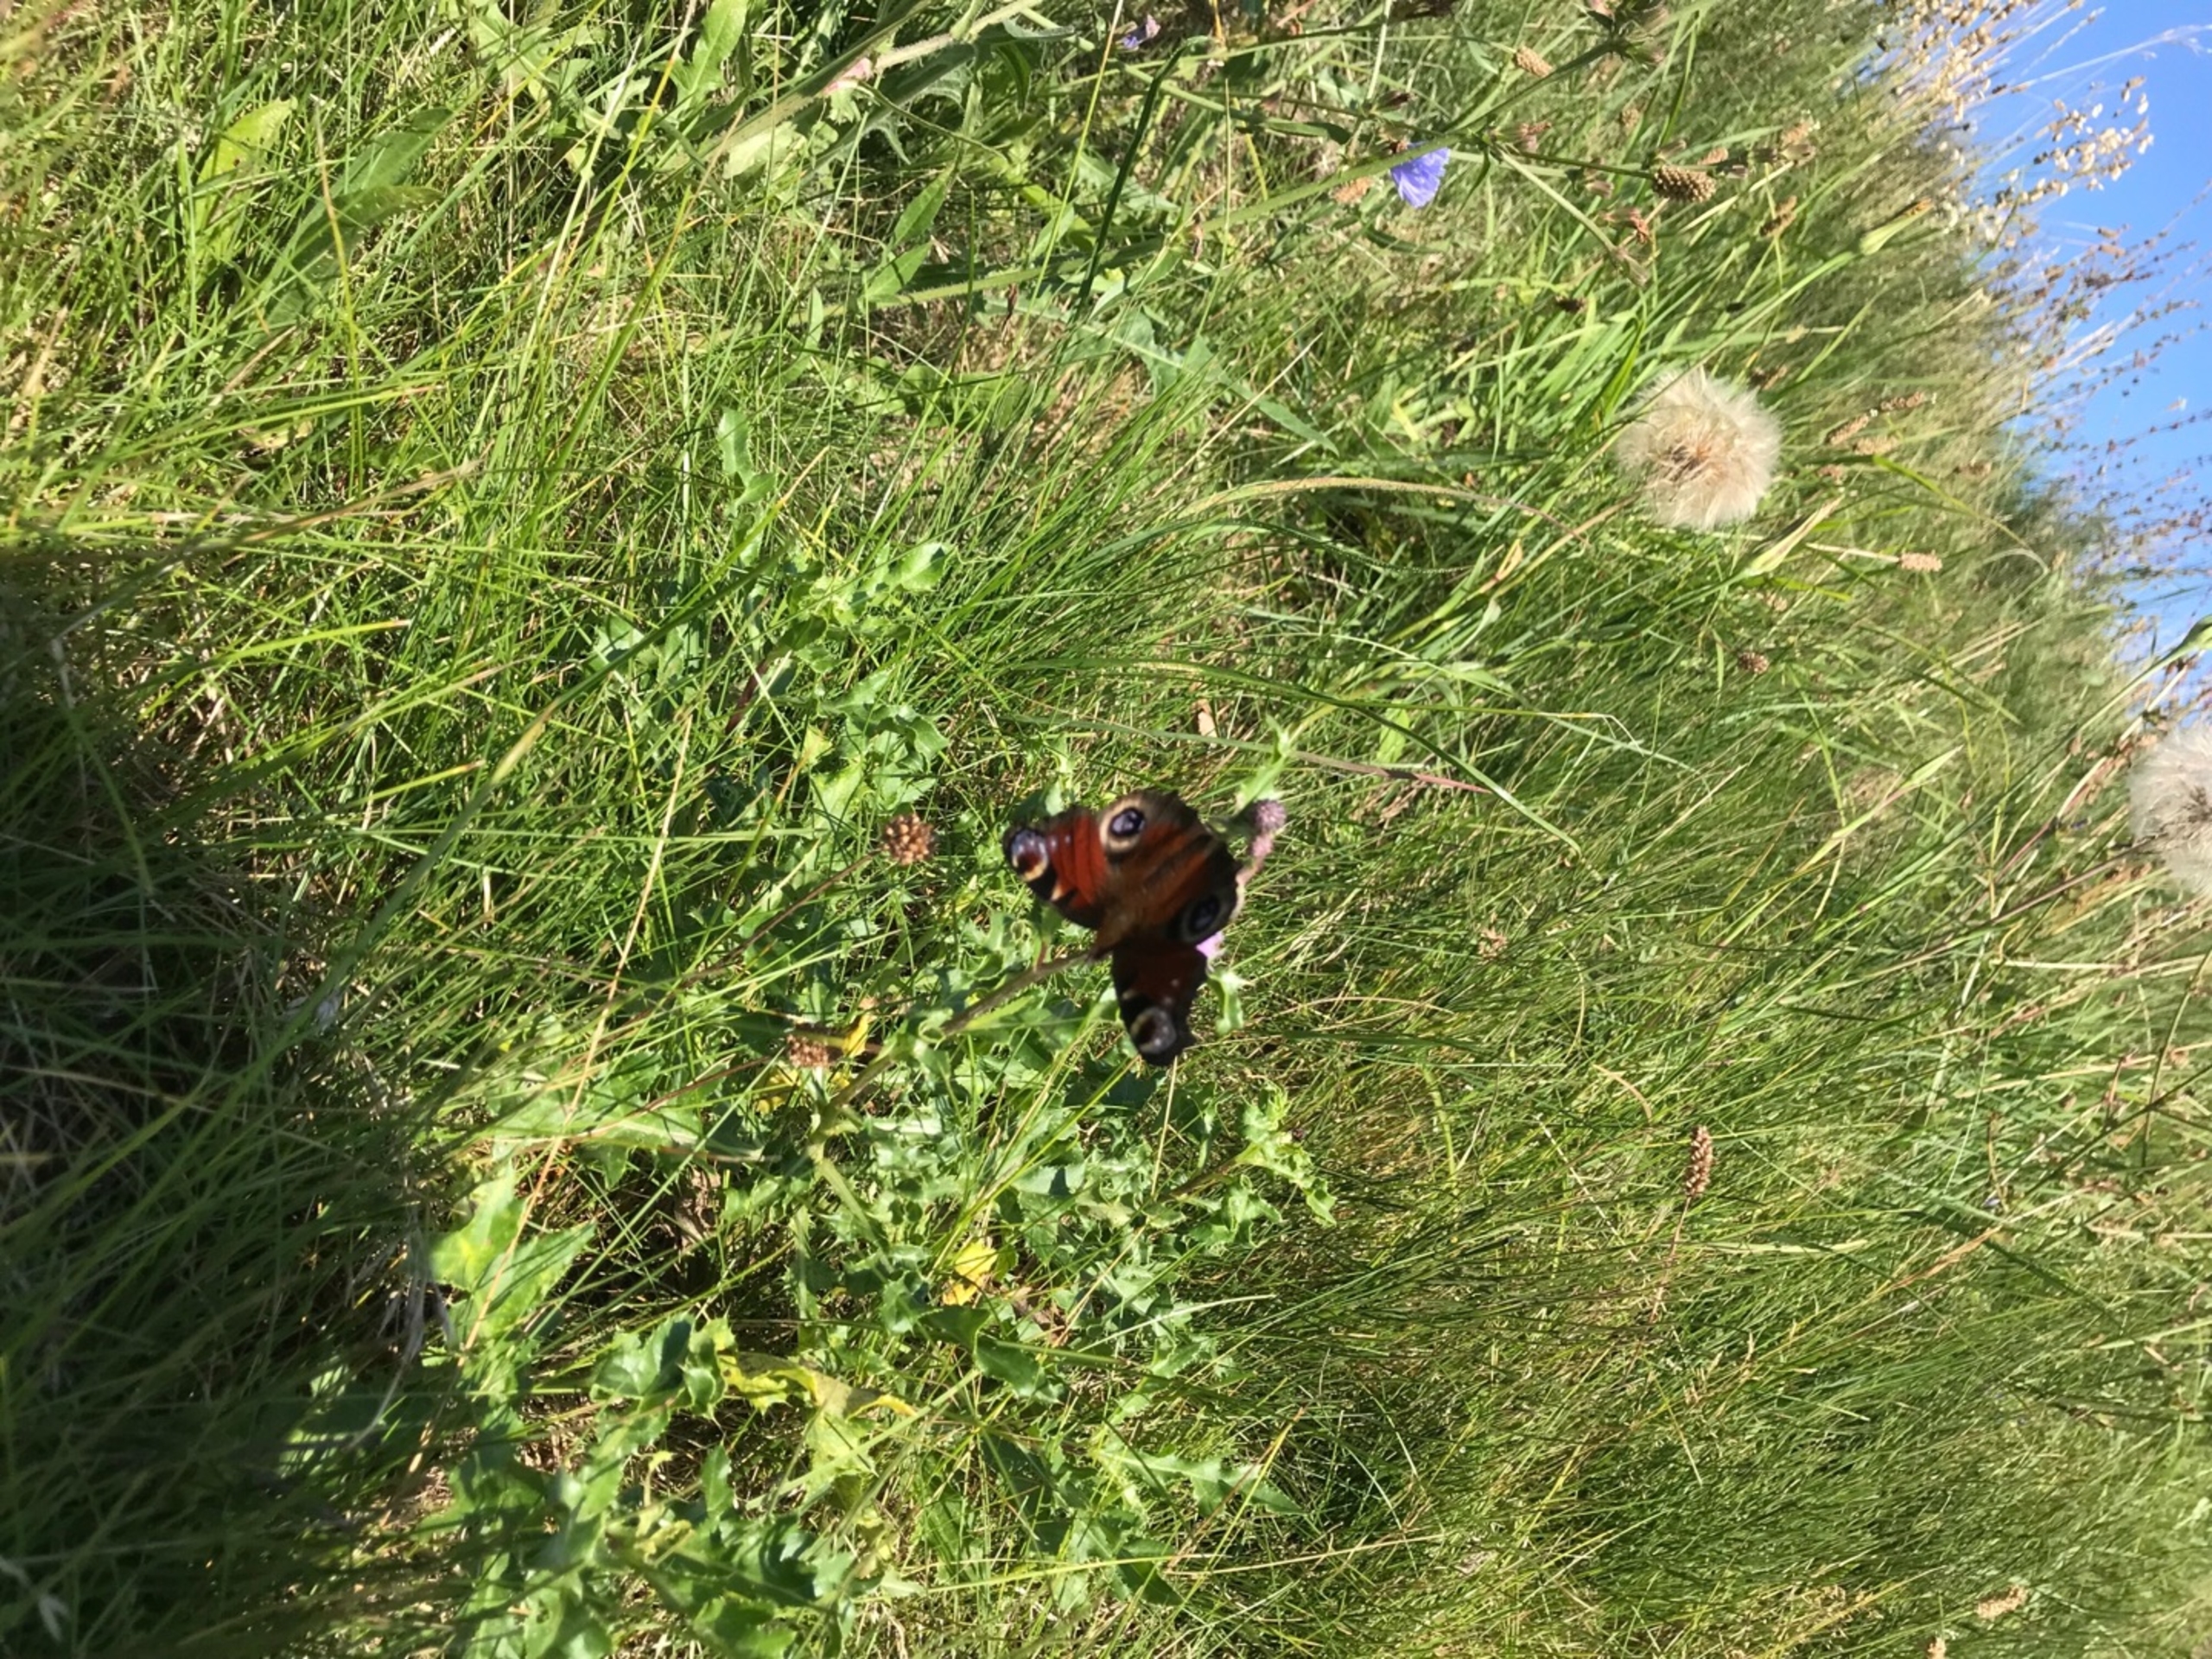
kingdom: Animalia
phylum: Arthropoda
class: Insecta
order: Lepidoptera
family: Nymphalidae
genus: Aglais
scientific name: Aglais io
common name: Dagpåfugleøje
